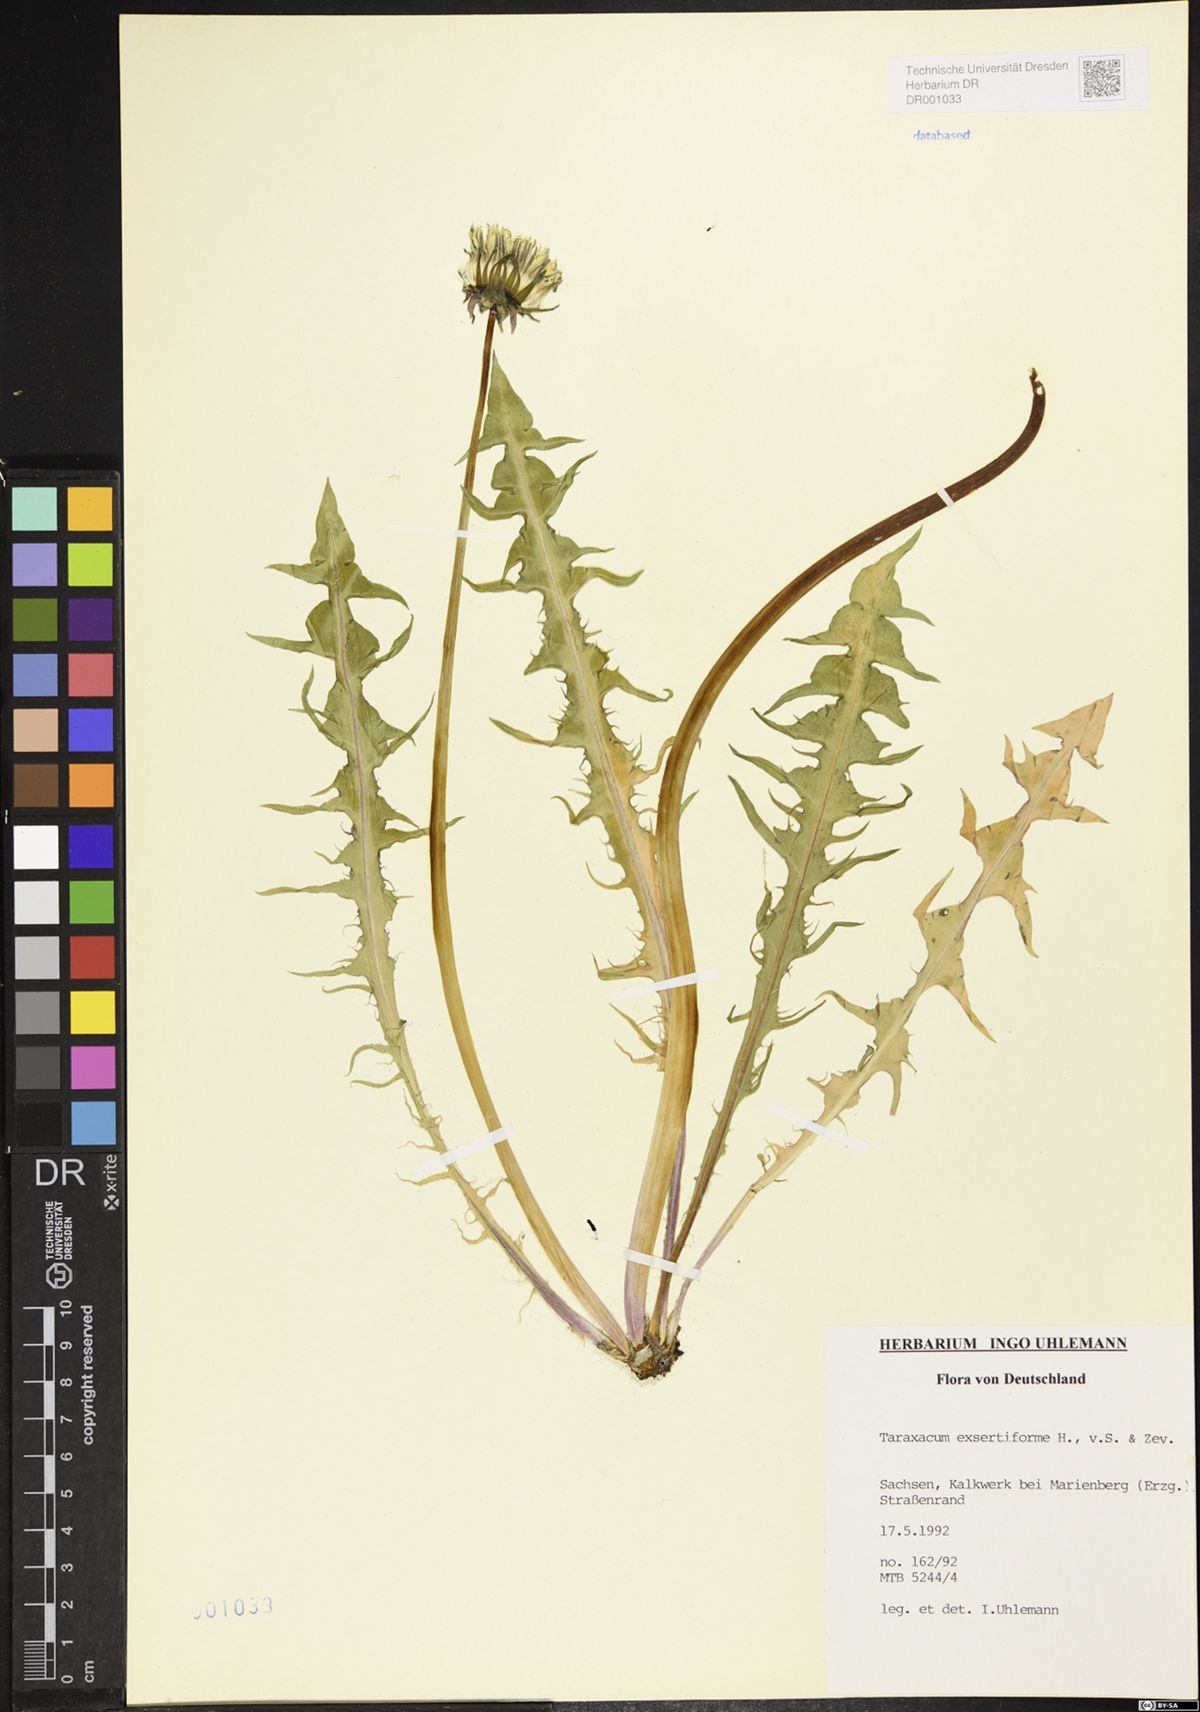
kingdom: Plantae
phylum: Tracheophyta
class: Magnoliopsida
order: Asterales
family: Asteraceae
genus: Taraxacum
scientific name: Taraxacum exsertiforme
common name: Erect-bracted dandelion
